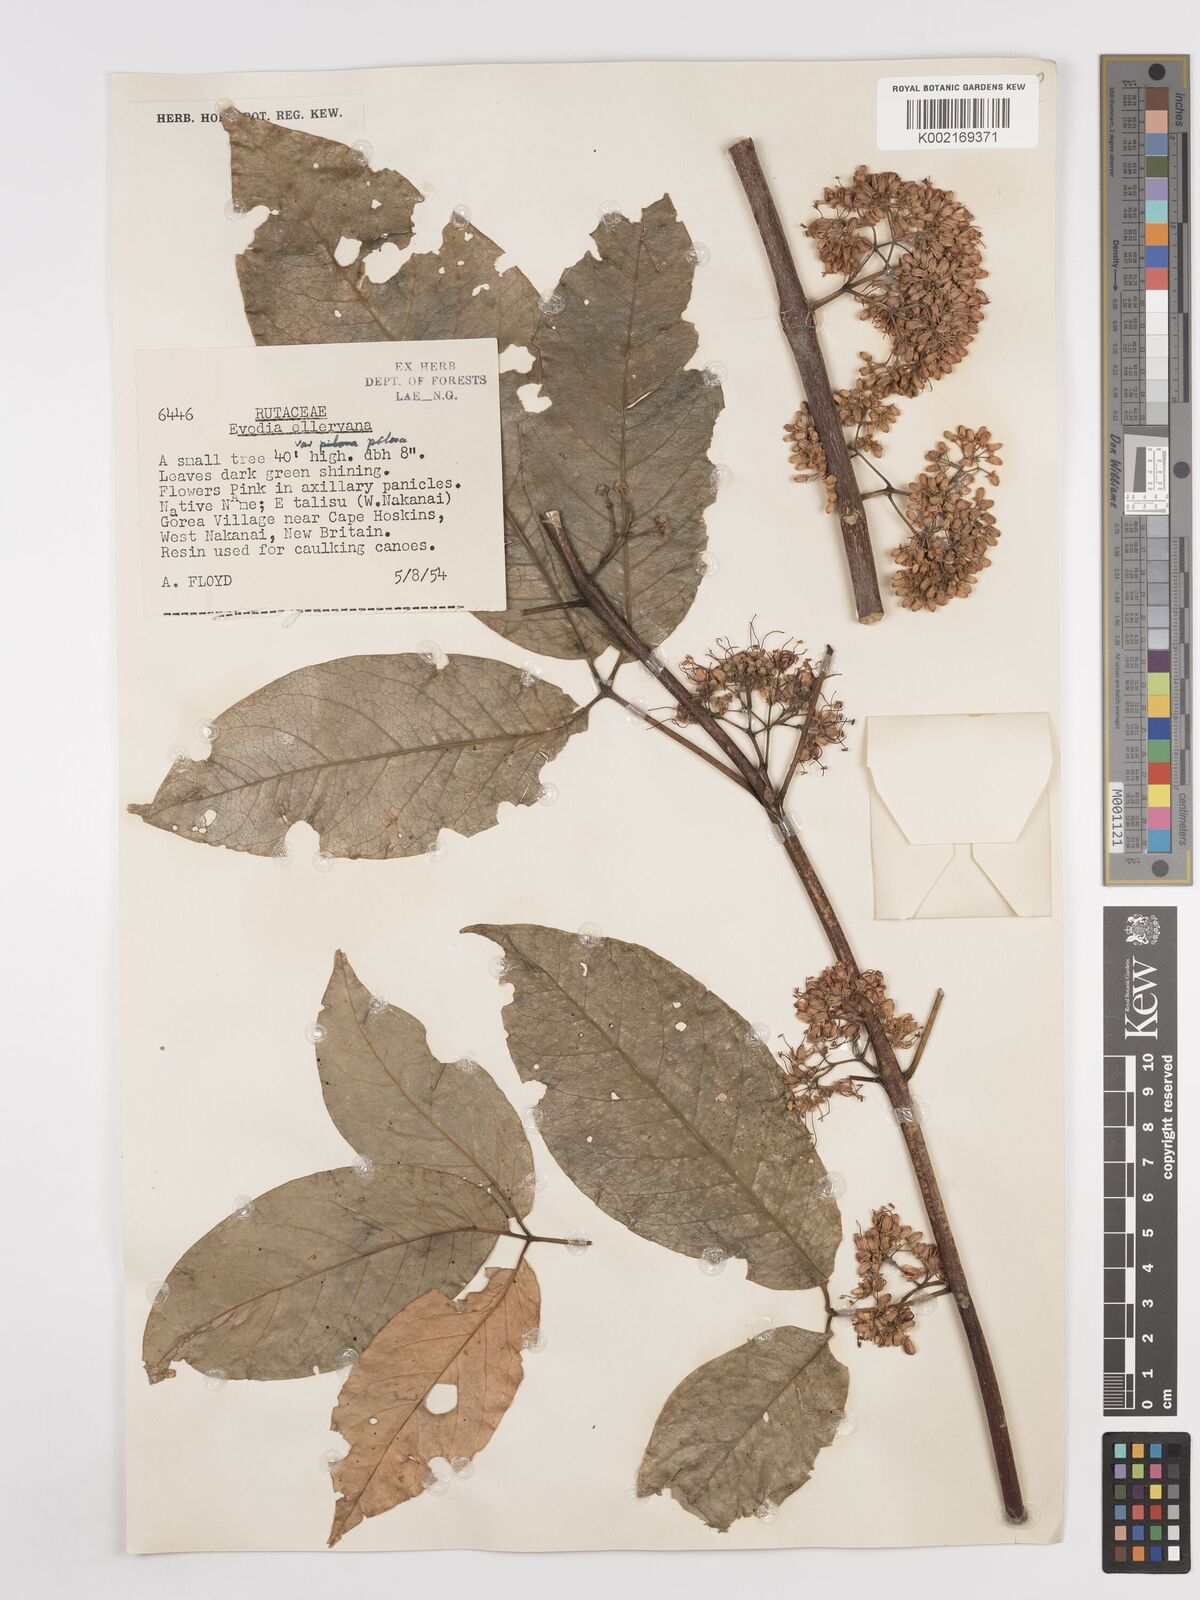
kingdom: Plantae
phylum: Tracheophyta
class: Magnoliopsida
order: Sapindales
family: Rutaceae
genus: Melicope
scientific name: Melicope elleryana
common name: Pink euodia
